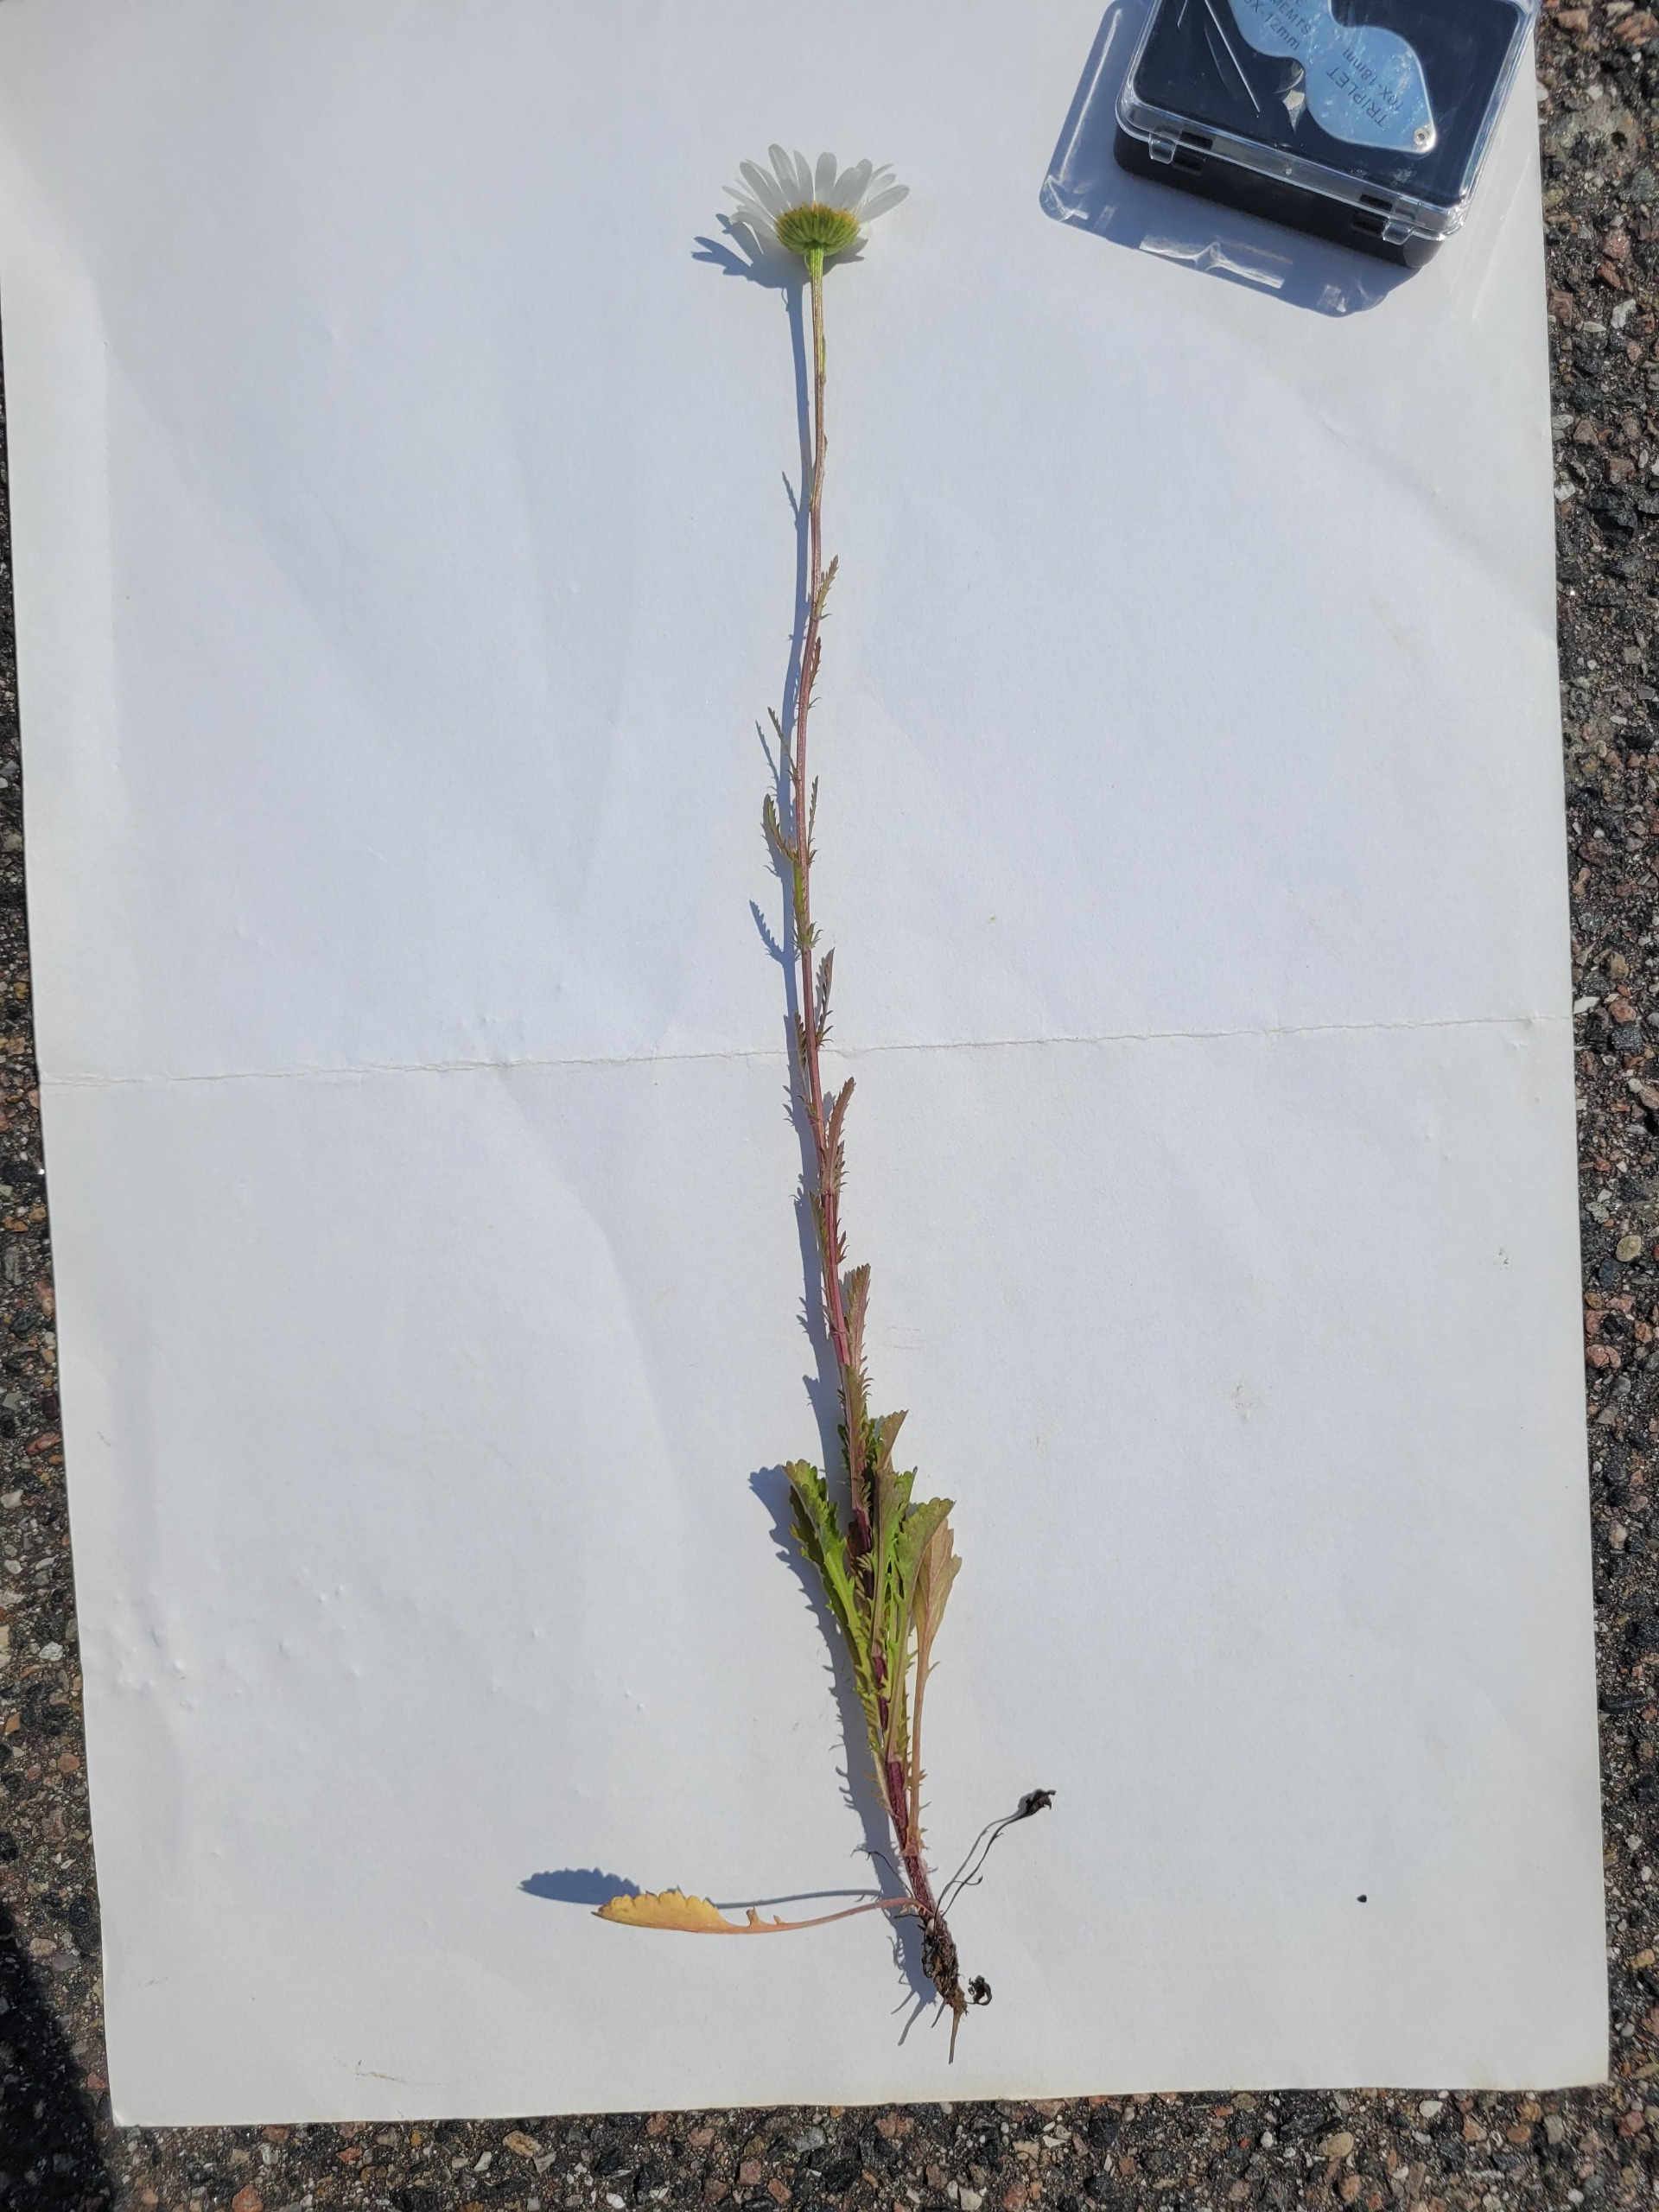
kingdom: Plantae
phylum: Tracheophyta
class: Magnoliopsida
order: Asterales
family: Asteraceae
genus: Leucanthemum
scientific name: Leucanthemum vulgare
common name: Hvid okseøje
